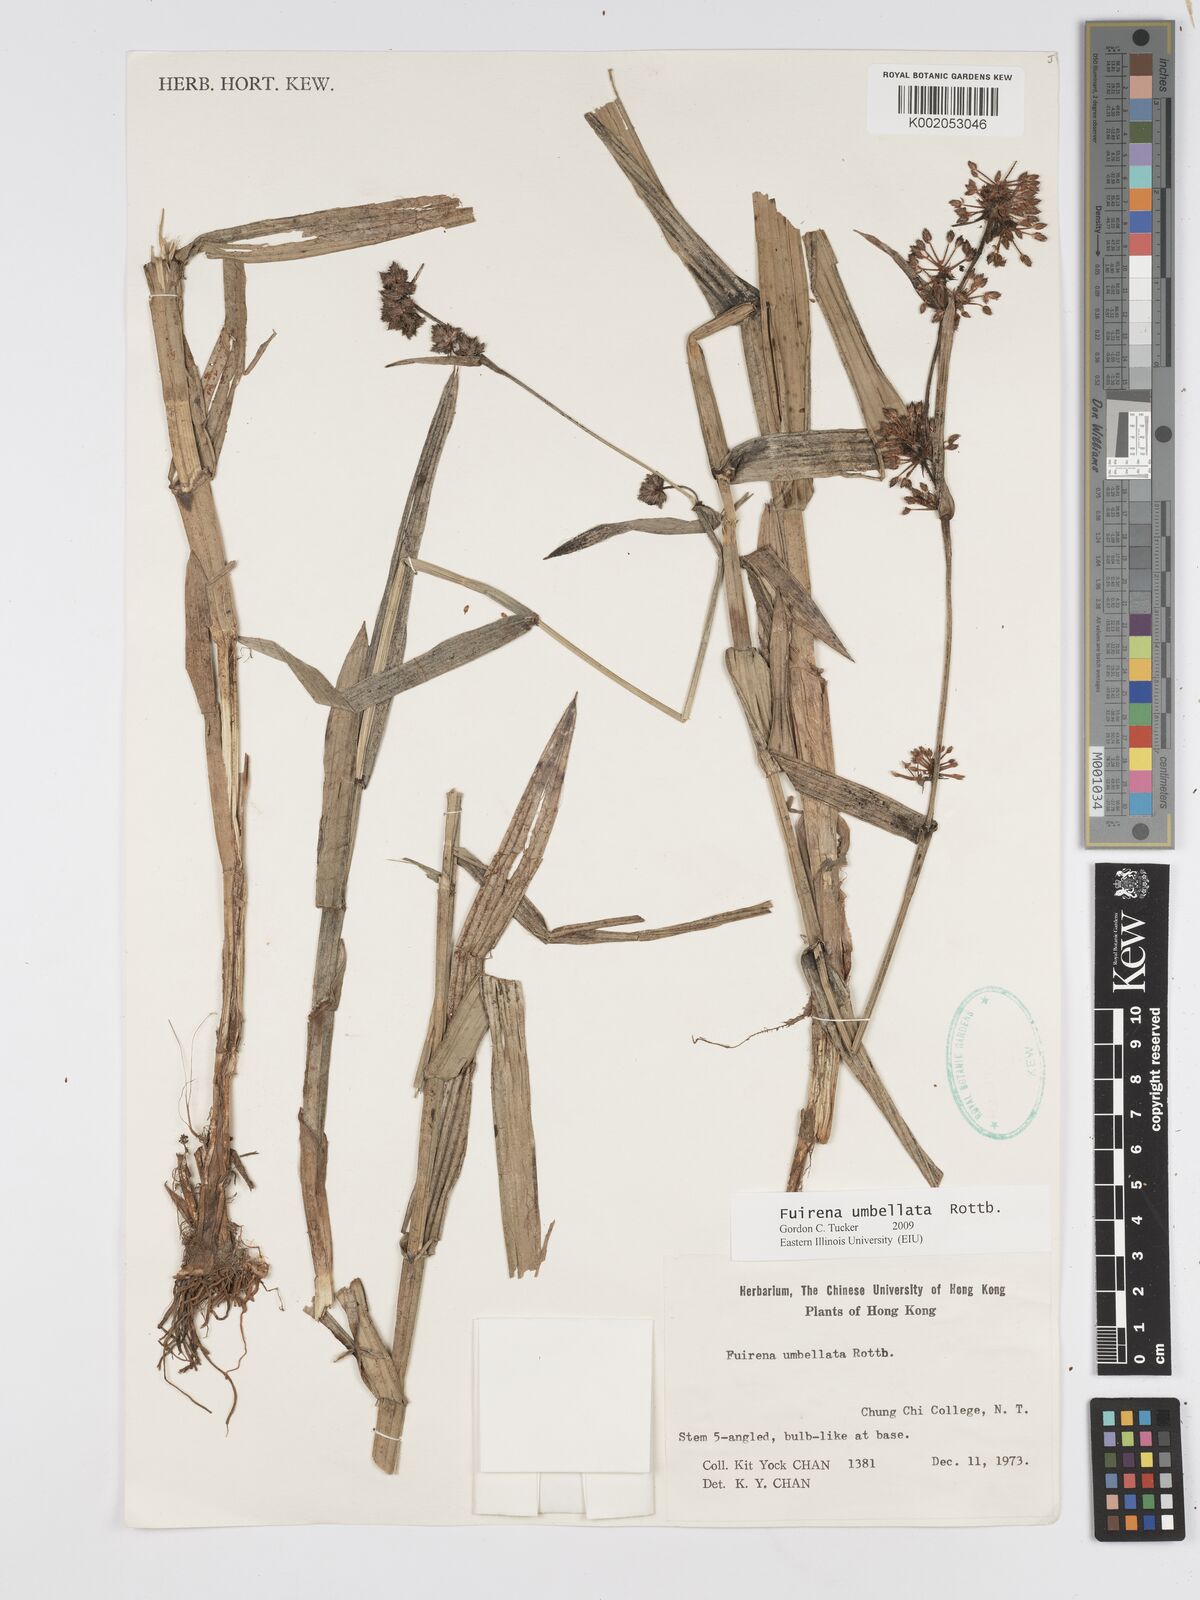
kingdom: Plantae
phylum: Tracheophyta
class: Liliopsida
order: Poales
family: Cyperaceae
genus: Fuirena
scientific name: Fuirena umbellata
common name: Yefen
